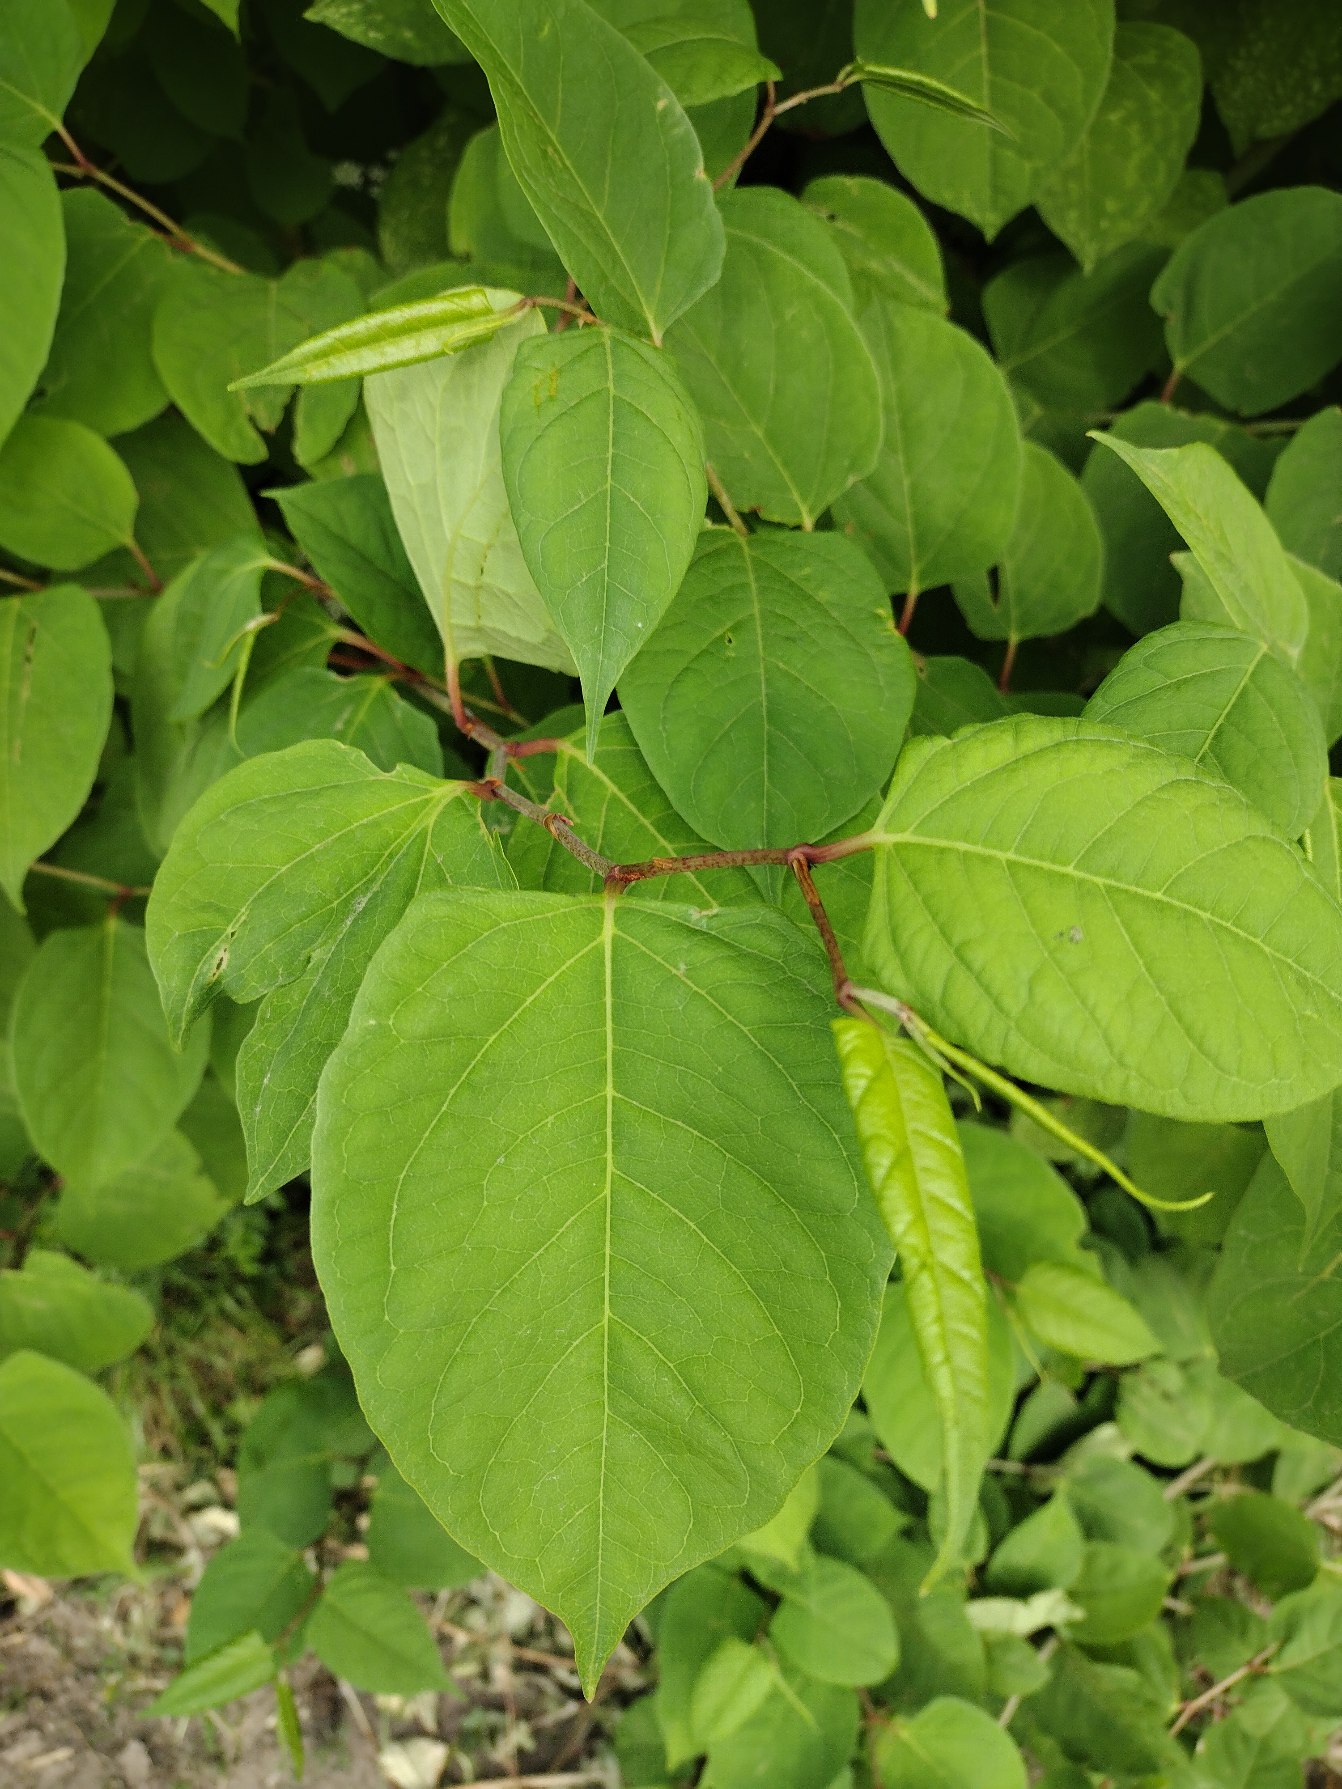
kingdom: Plantae
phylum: Tracheophyta
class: Magnoliopsida
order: Caryophyllales
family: Polygonaceae
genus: Reynoutria
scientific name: Reynoutria japonica
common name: Japan-pileurt
